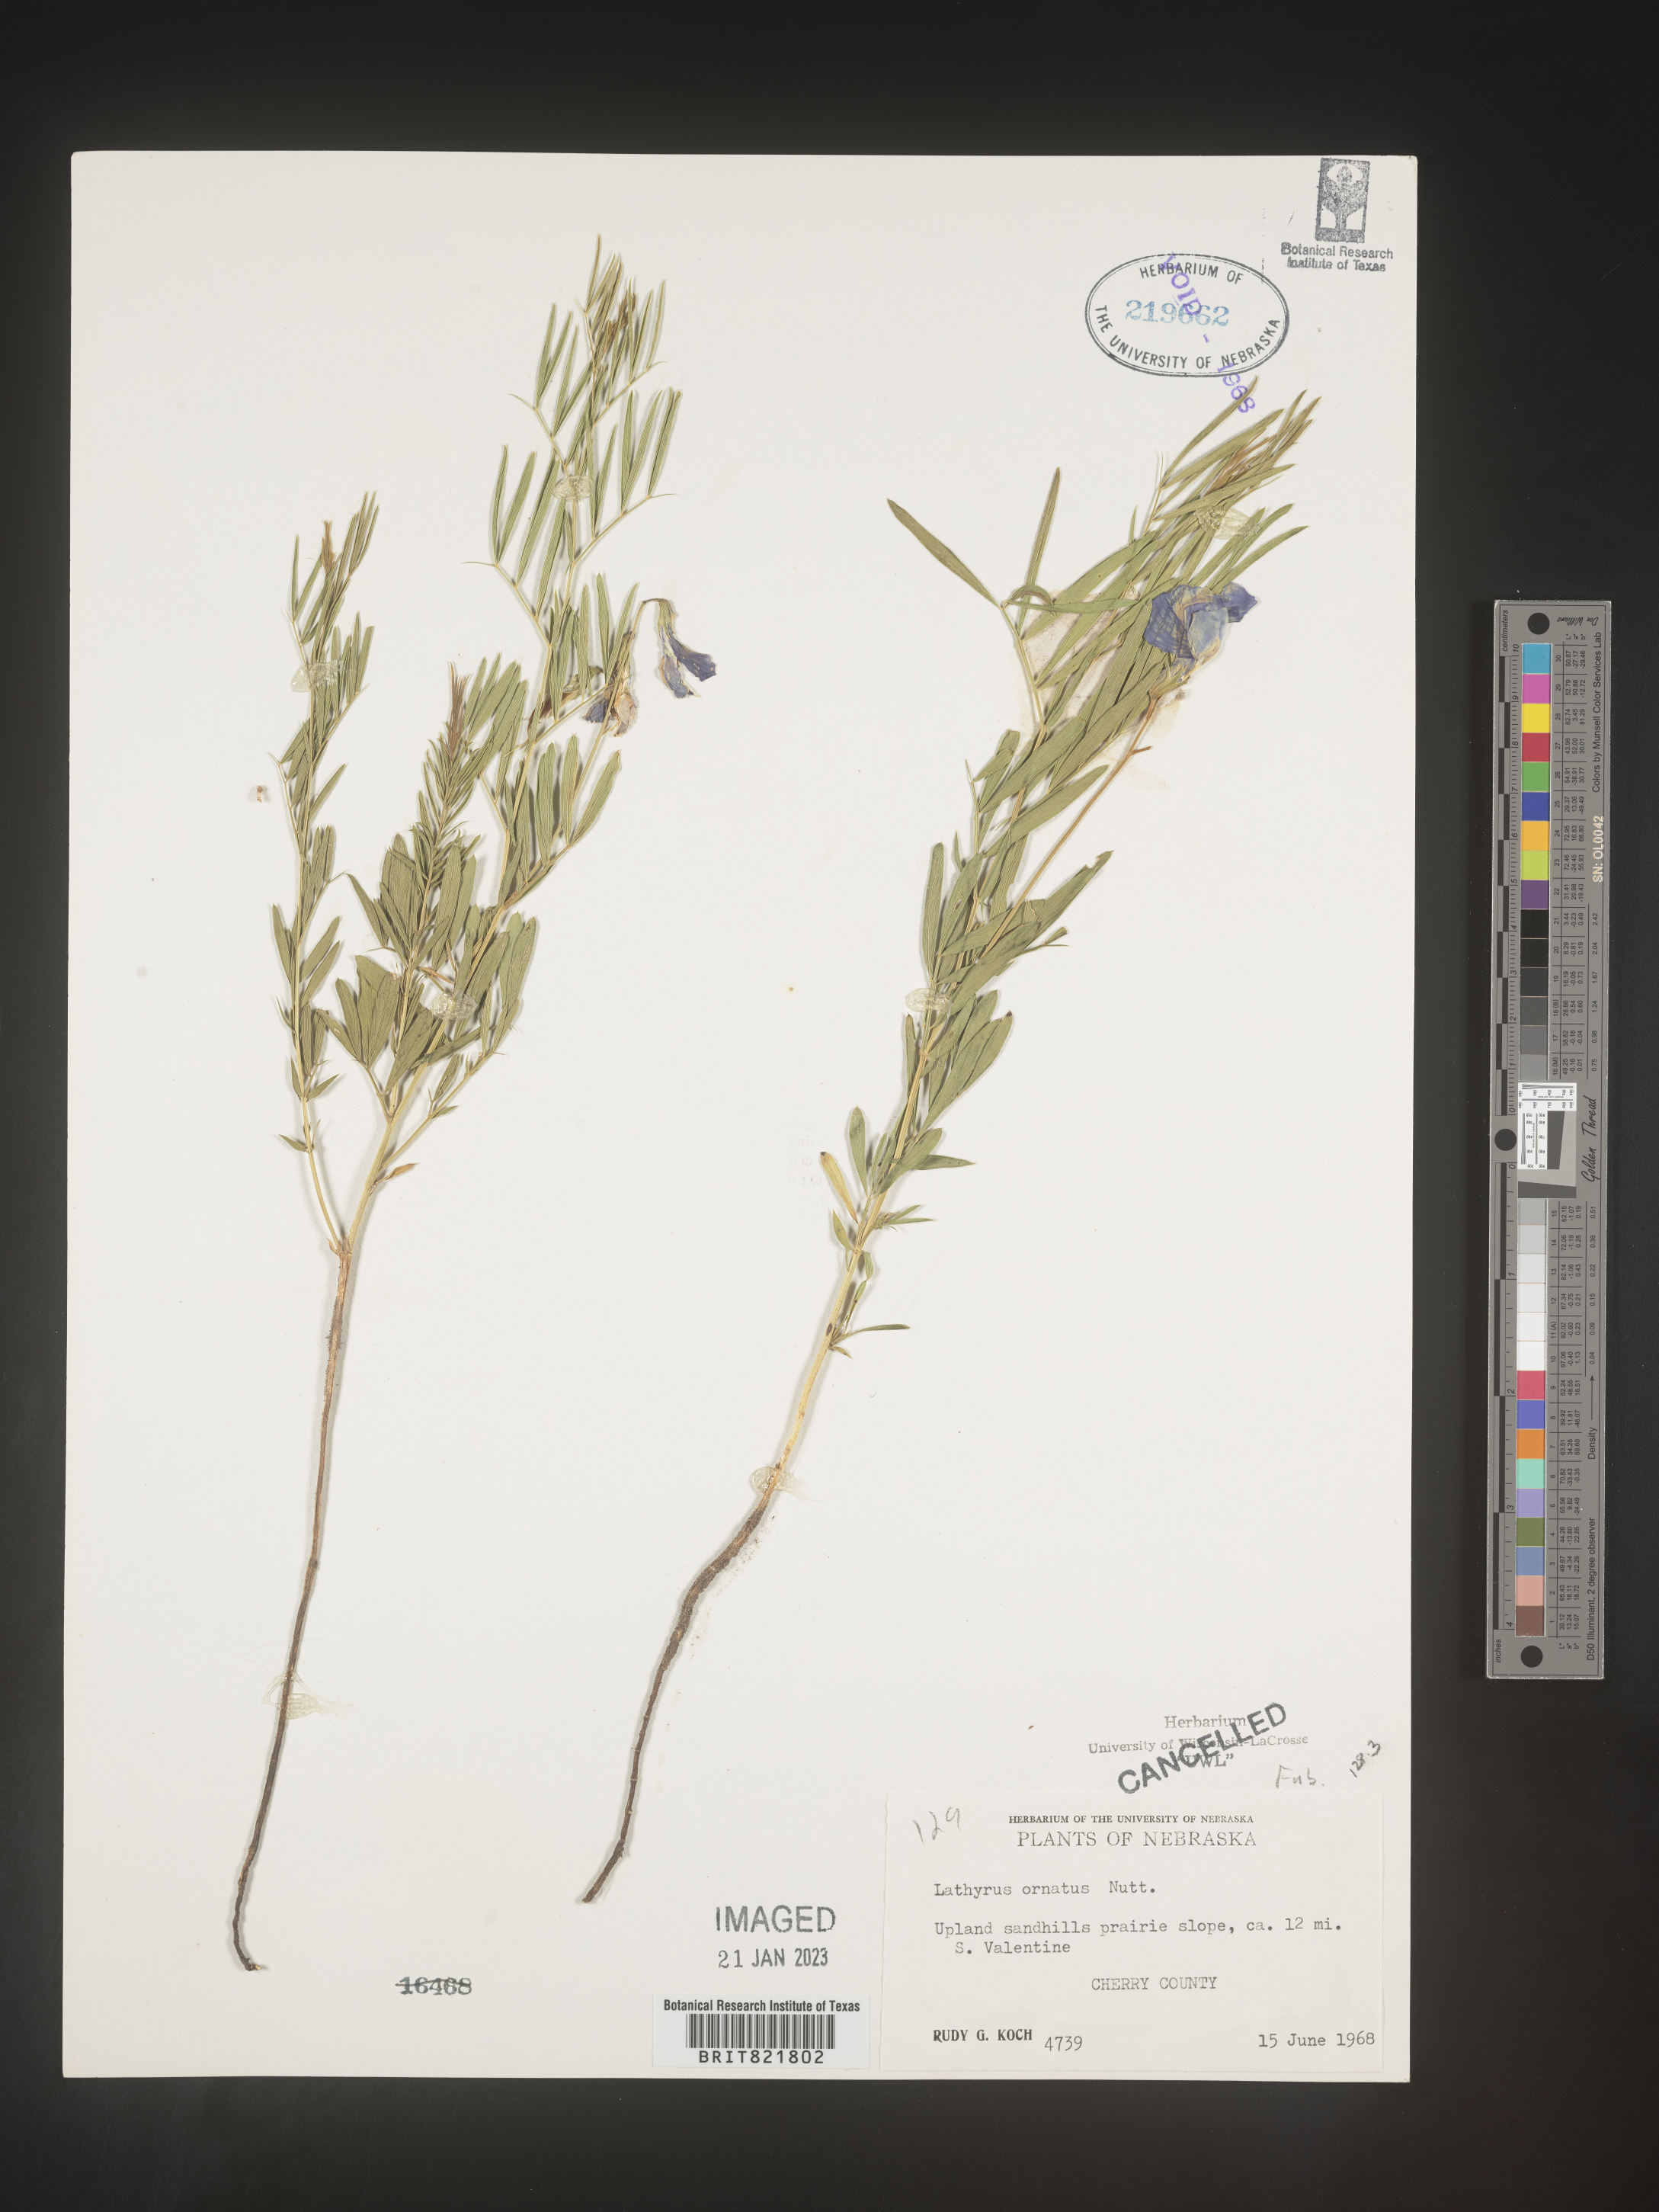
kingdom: Plantae
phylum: Tracheophyta
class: Magnoliopsida
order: Fabales
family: Fabaceae
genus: Lathyrus
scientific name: Lathyrus
